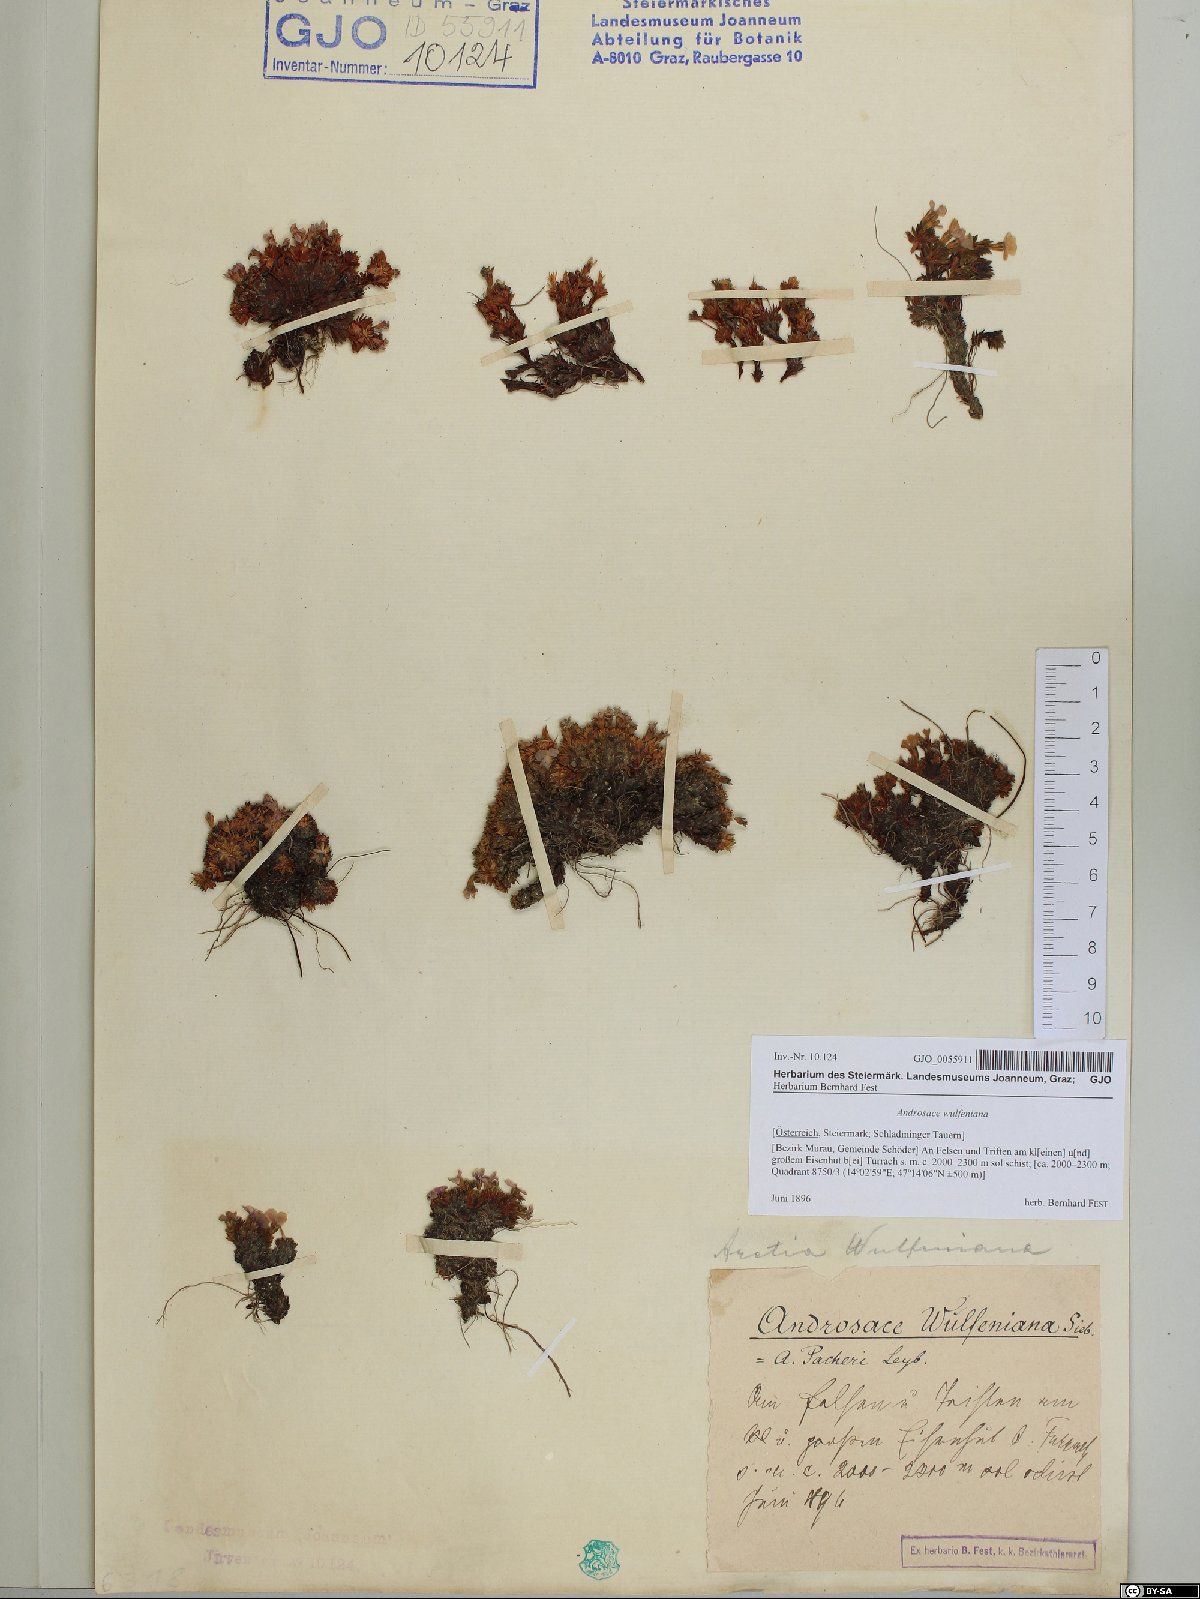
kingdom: Plantae
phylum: Tracheophyta
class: Magnoliopsida
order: Ericales
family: Primulaceae
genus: Androsace
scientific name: Androsace wulfeniana
